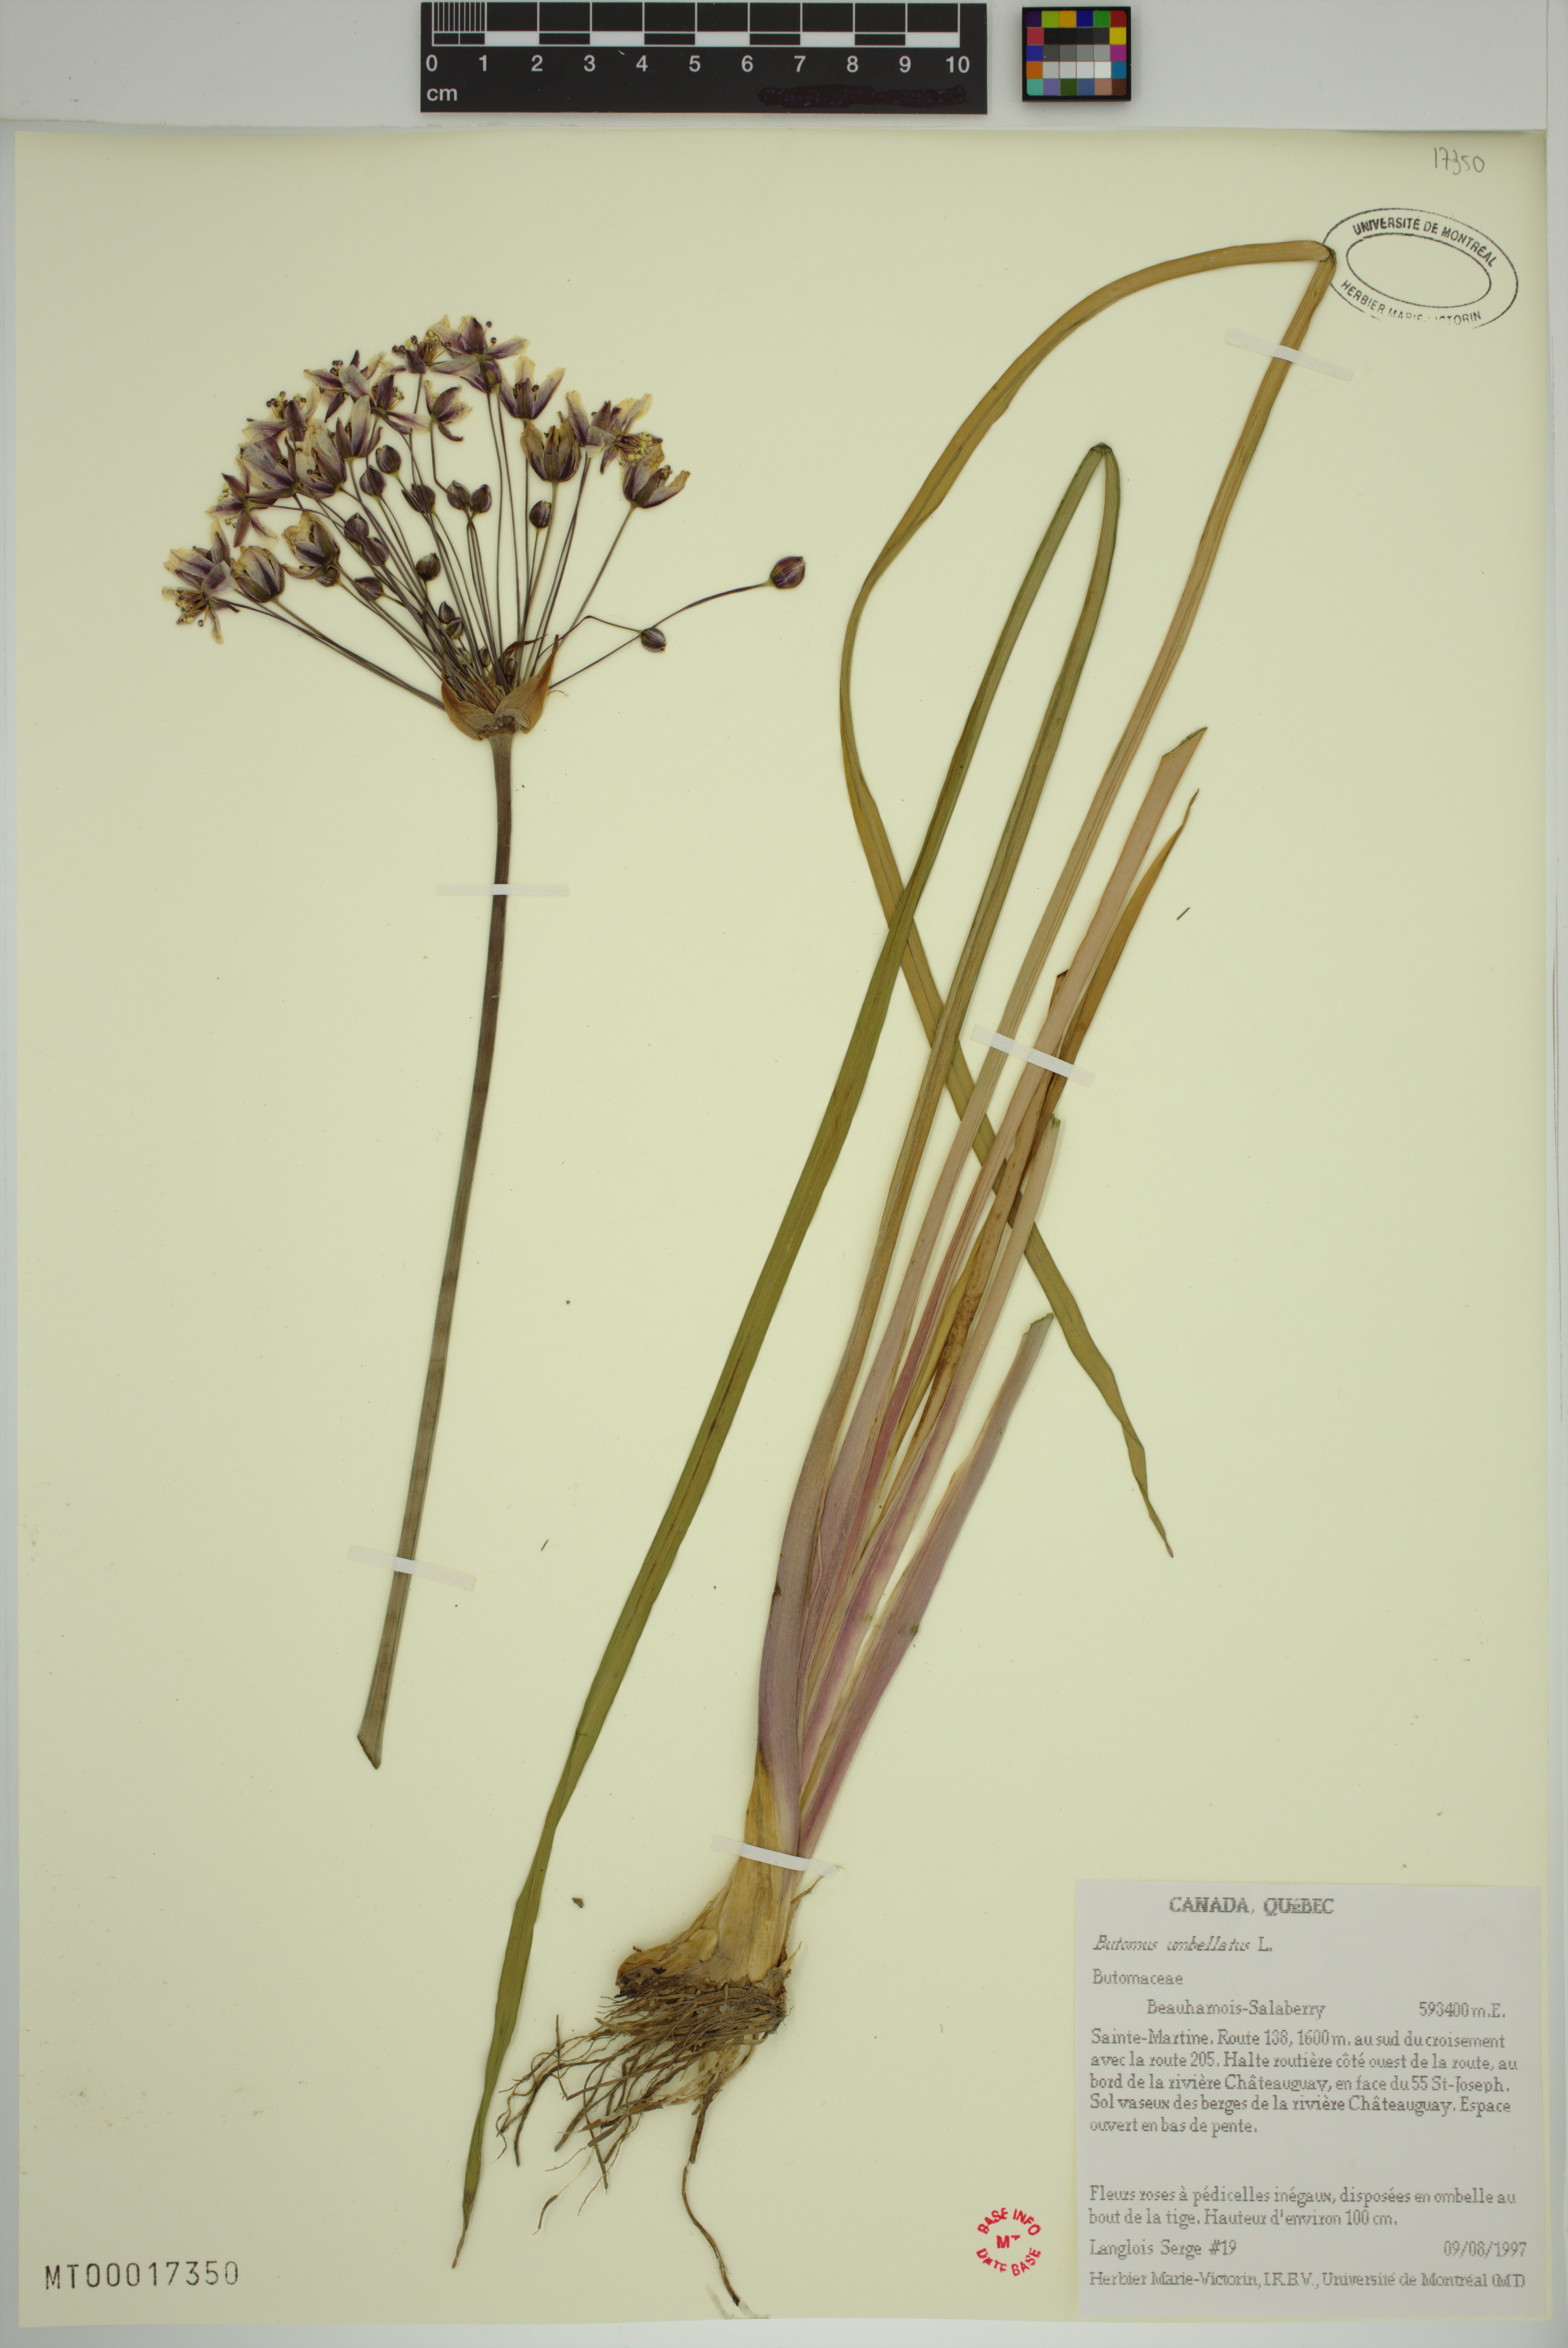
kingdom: Plantae
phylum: Tracheophyta
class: Liliopsida
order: Alismatales
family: Butomaceae
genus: Butomus
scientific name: Butomus umbellatus
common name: Flowering-rush
